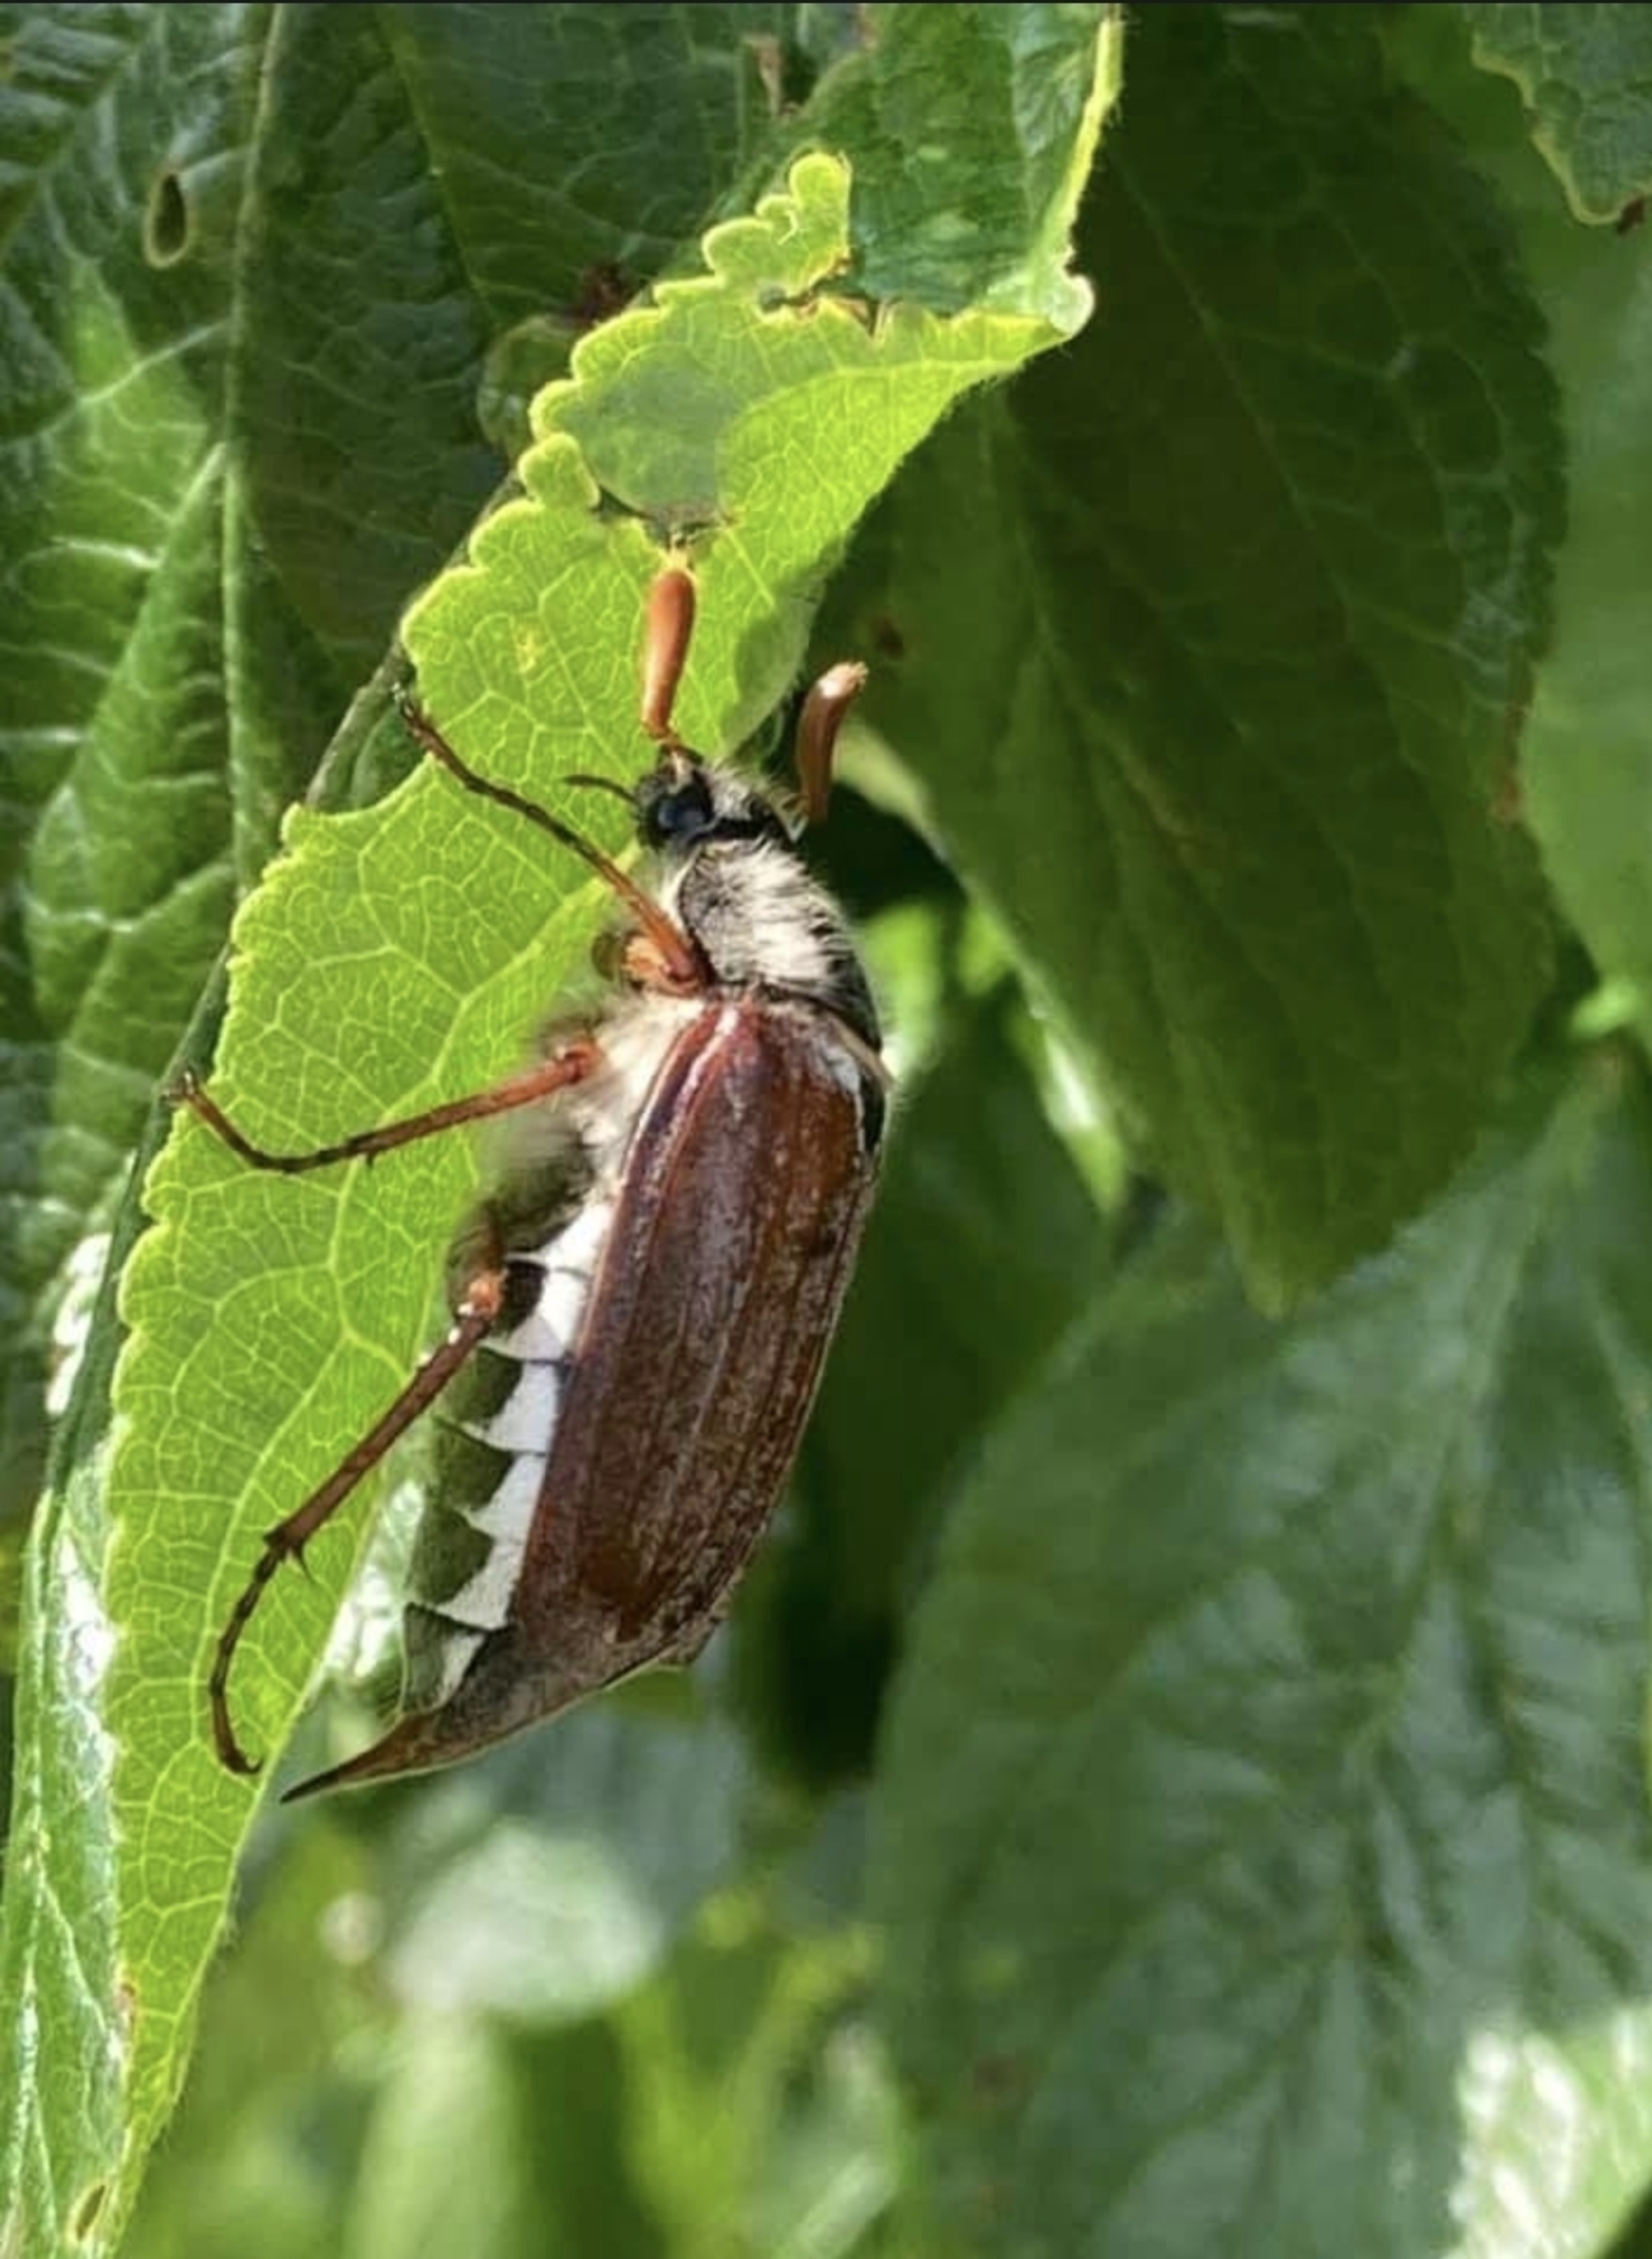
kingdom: Animalia
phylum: Arthropoda
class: Insecta
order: Coleoptera
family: Scarabaeidae
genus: Melolontha
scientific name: Melolontha melolontha
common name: Almindelig oldenborre
